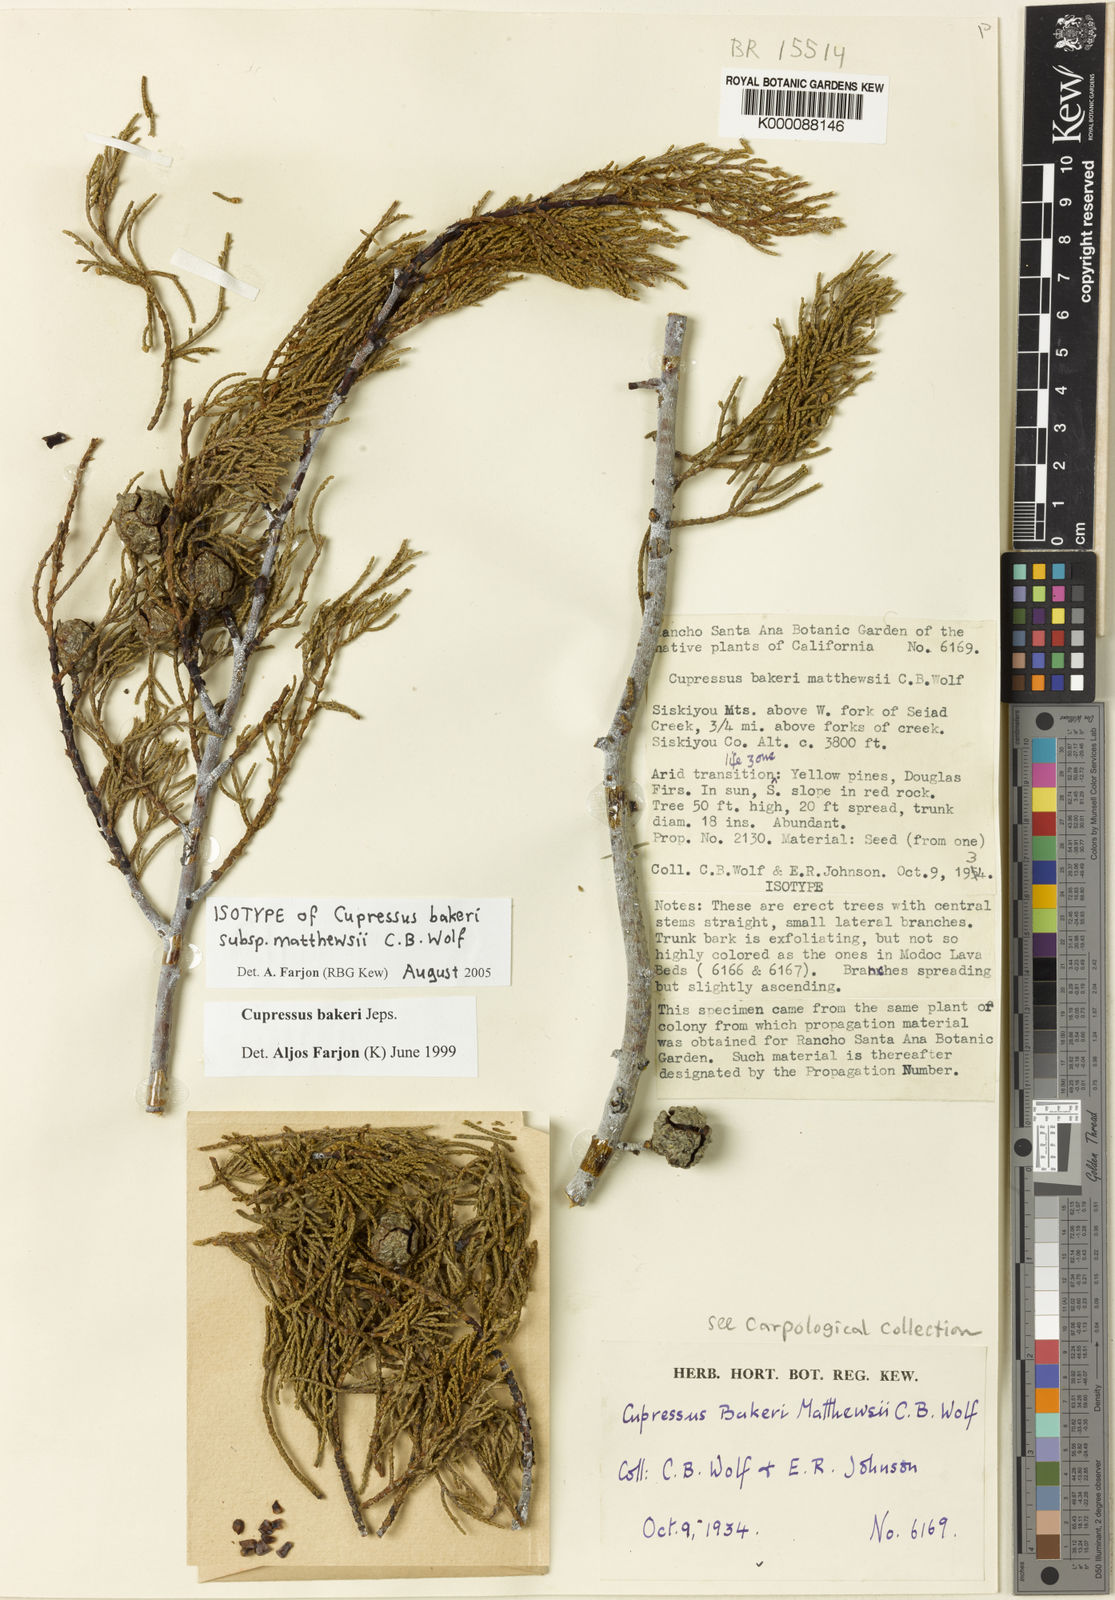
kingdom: Plantae
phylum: Tracheophyta
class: Pinopsida
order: Pinales
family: Cupressaceae
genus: Cupressus
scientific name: Cupressus bakeri
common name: Baker cypress
